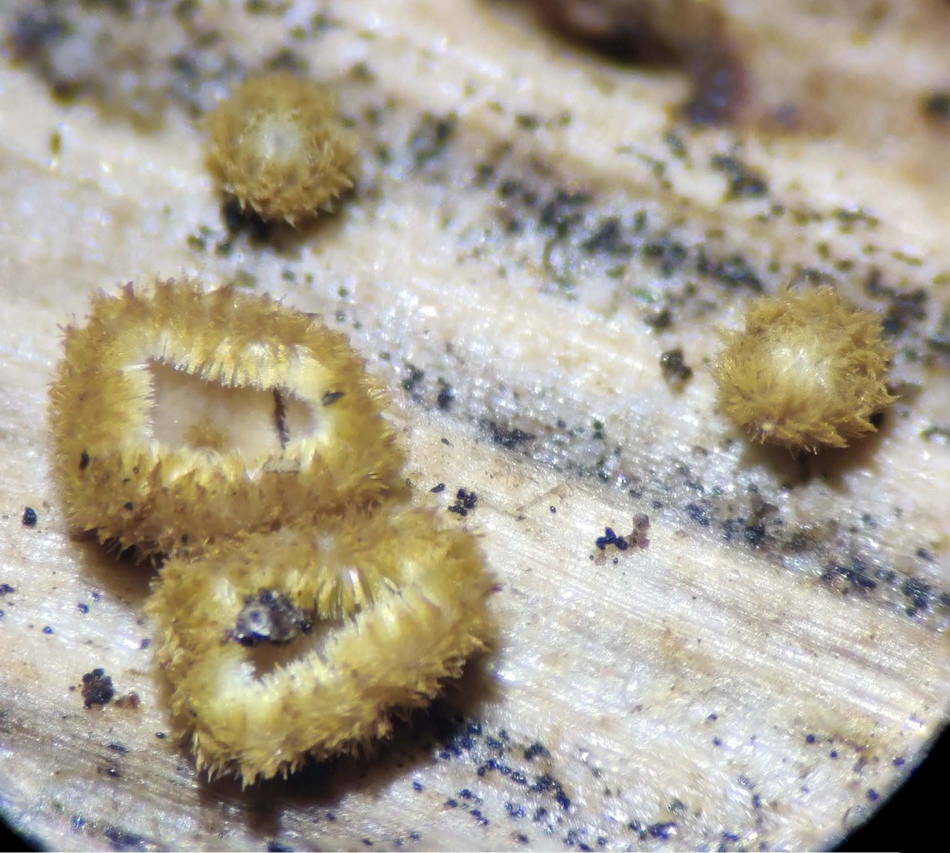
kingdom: Fungi
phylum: Ascomycota
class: Leotiomycetes
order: Helotiales
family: Lachnaceae
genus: Lachnum
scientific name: Lachnum mollissimum
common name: smuk frynseskive
